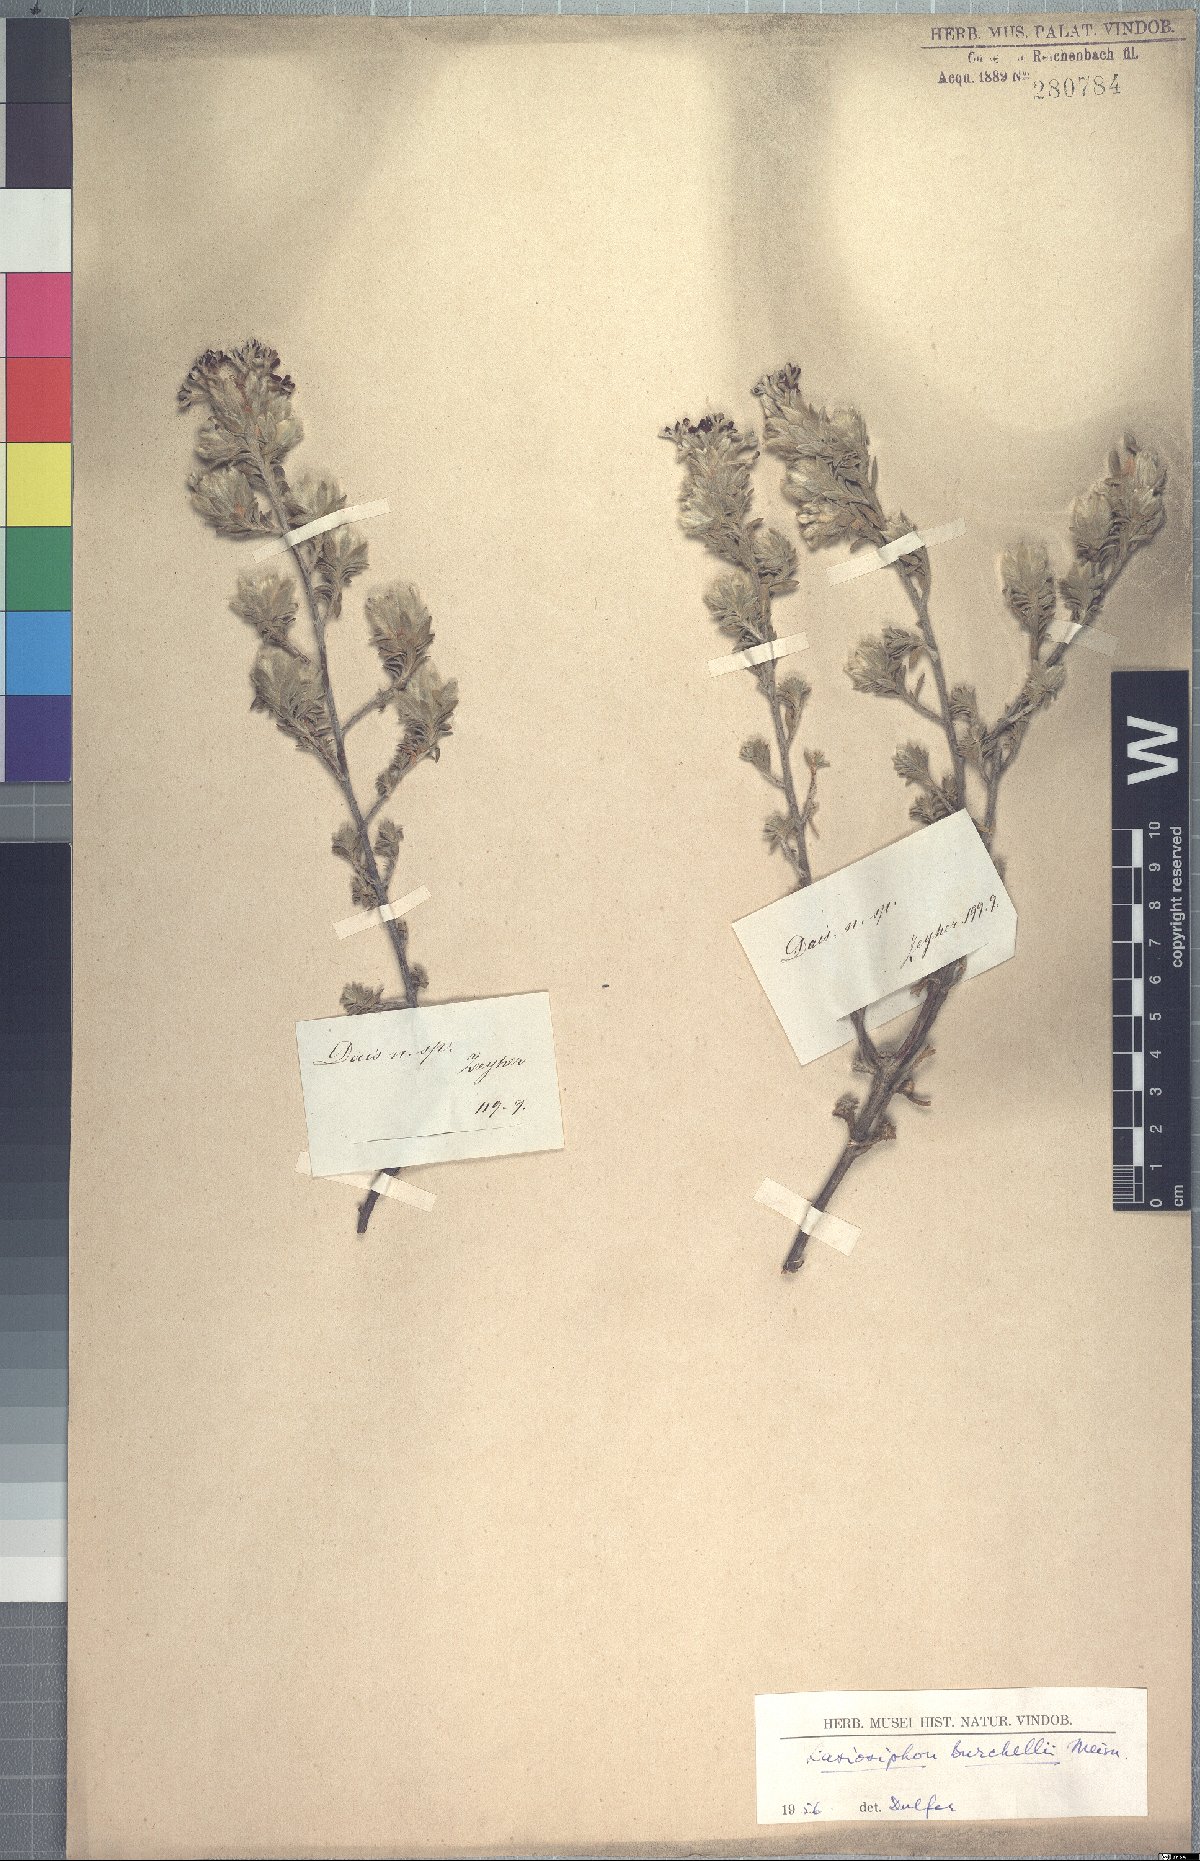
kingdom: Plantae
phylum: Tracheophyta
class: Magnoliopsida
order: Malvales
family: Thymelaeaceae
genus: Gnidia
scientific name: Gnidia burchellii
